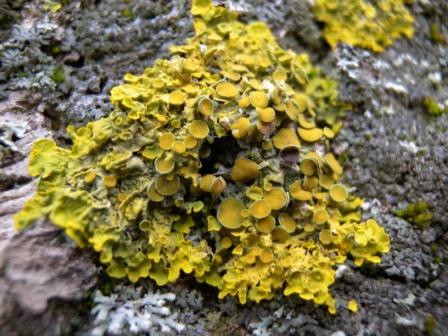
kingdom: Fungi
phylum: Ascomycota
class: Lecanoromycetes
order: Teloschistales
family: Teloschistaceae
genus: Xanthoria
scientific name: Xanthoria parietina
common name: almindelig væggelav
